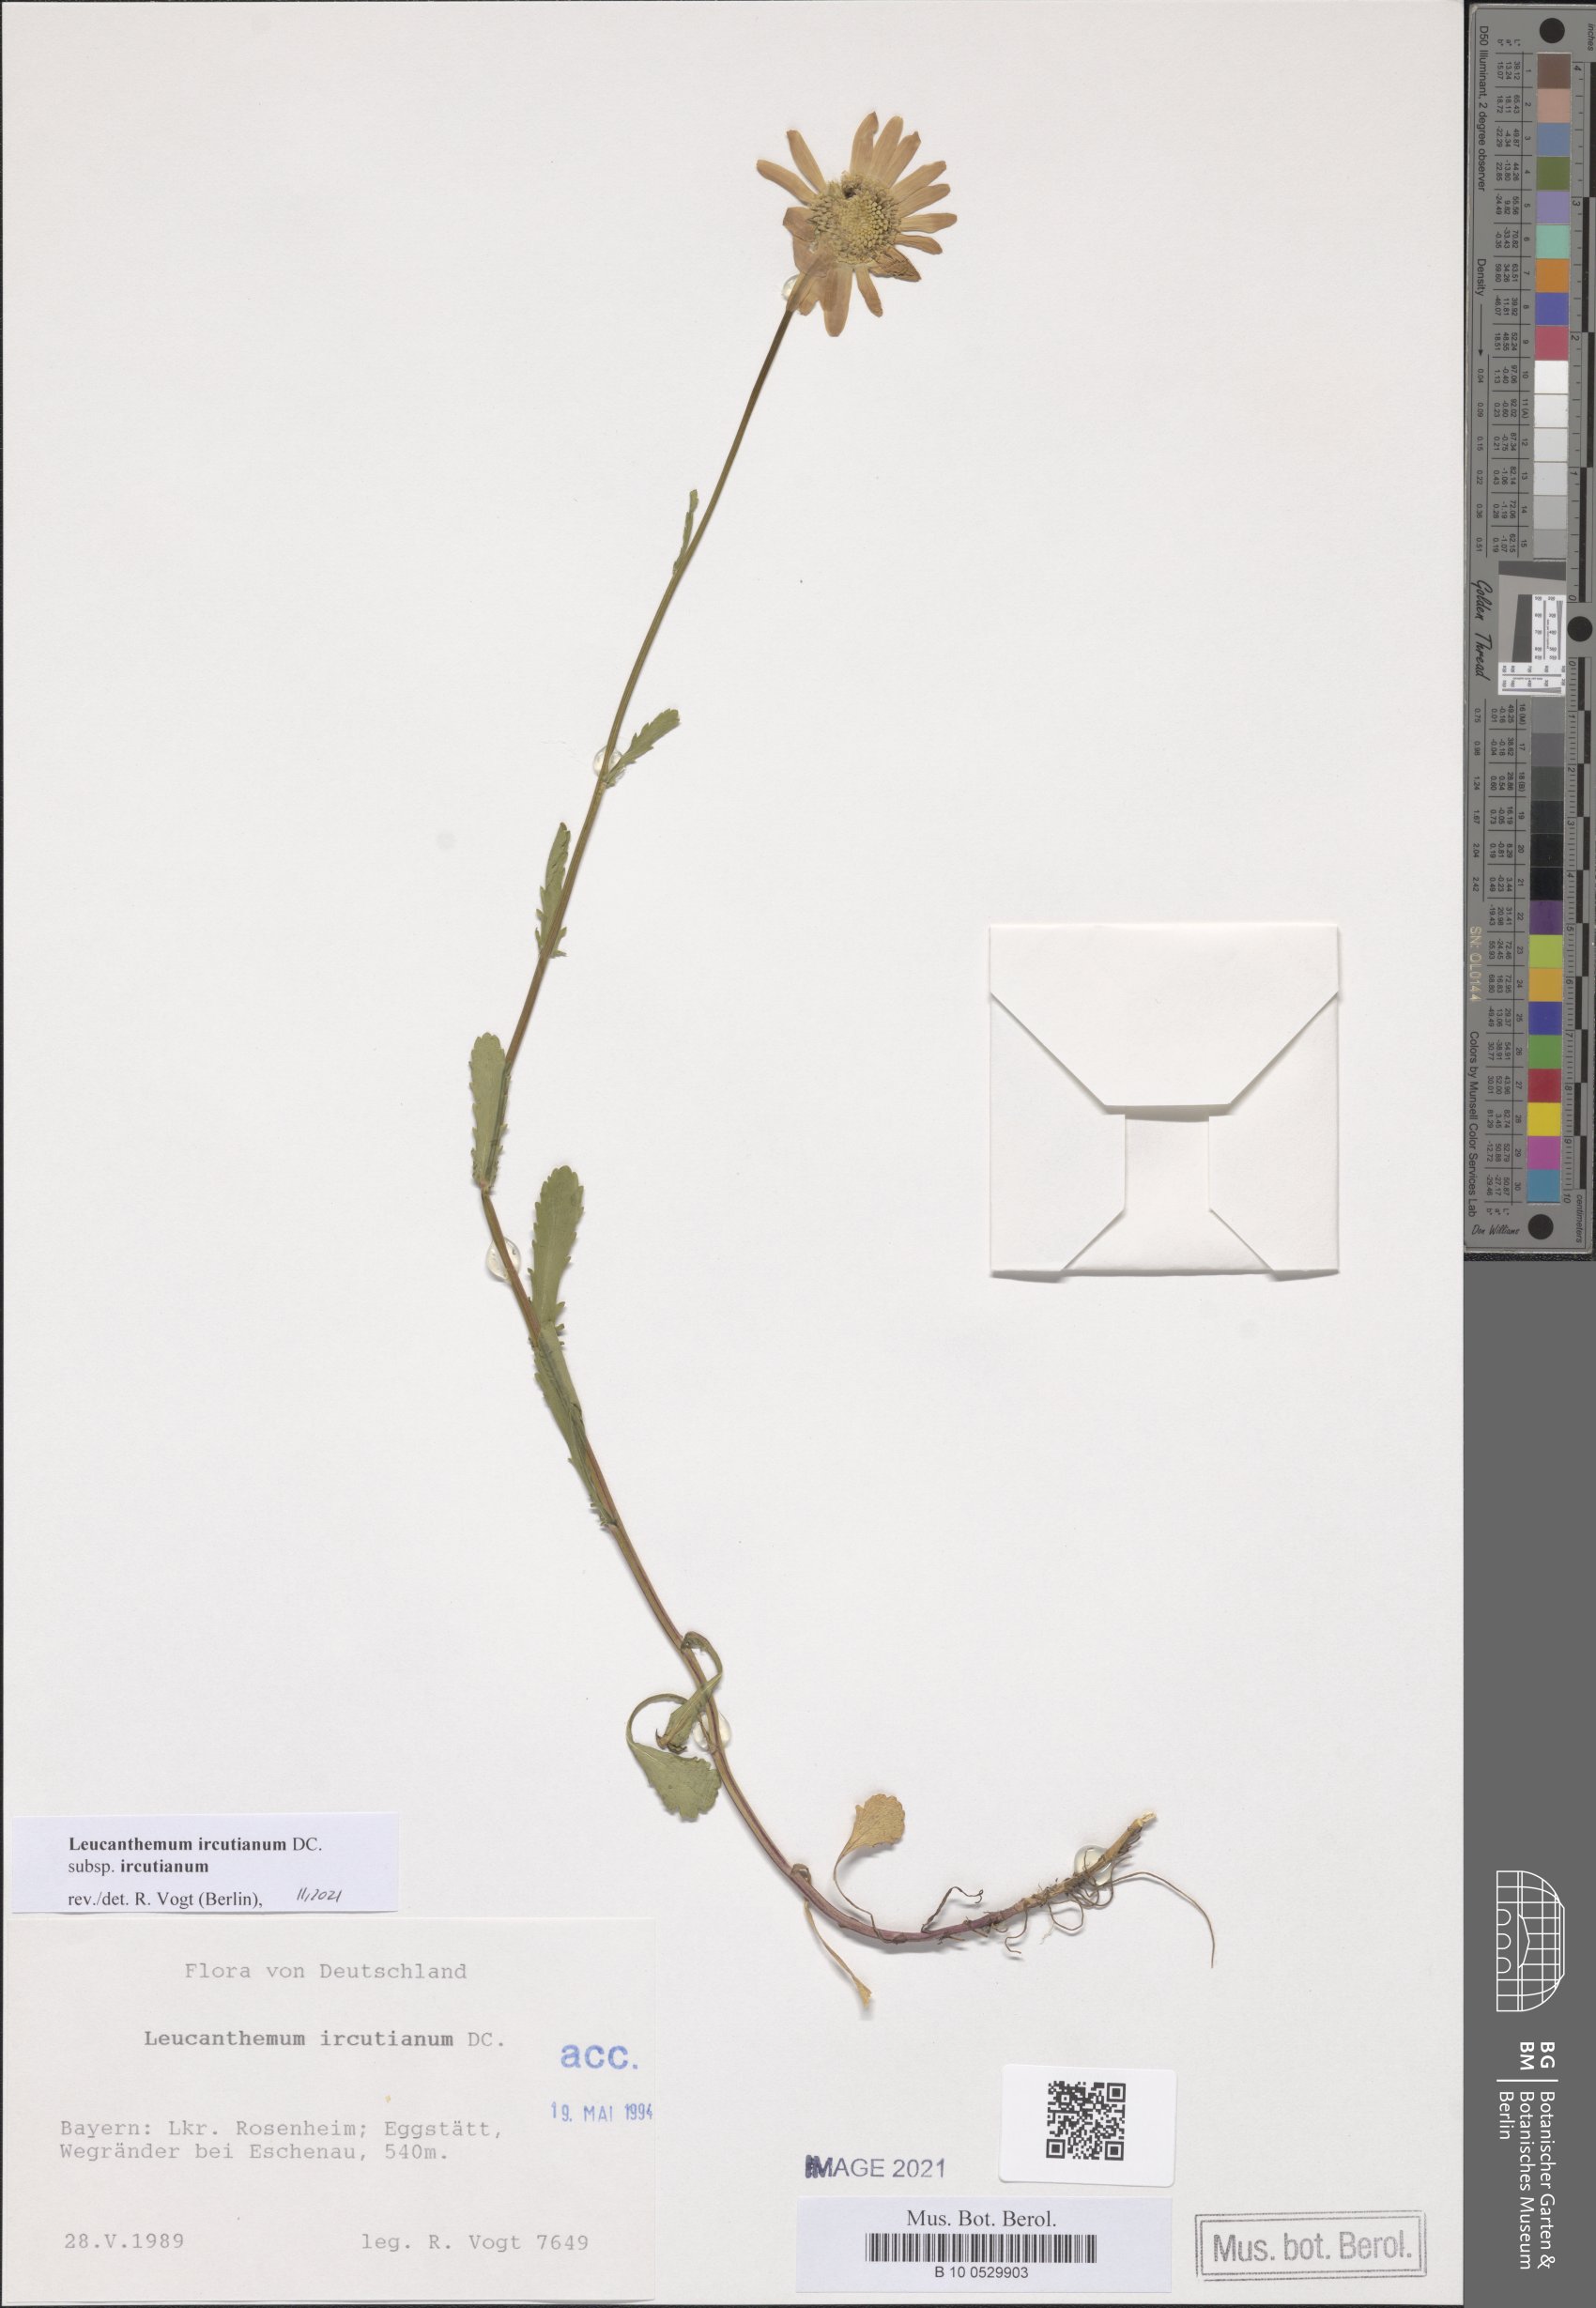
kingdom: Plantae
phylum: Tracheophyta
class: Magnoliopsida
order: Asterales
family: Asteraceae
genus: Leucanthemum
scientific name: Leucanthemum ircutianum
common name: Daisy
